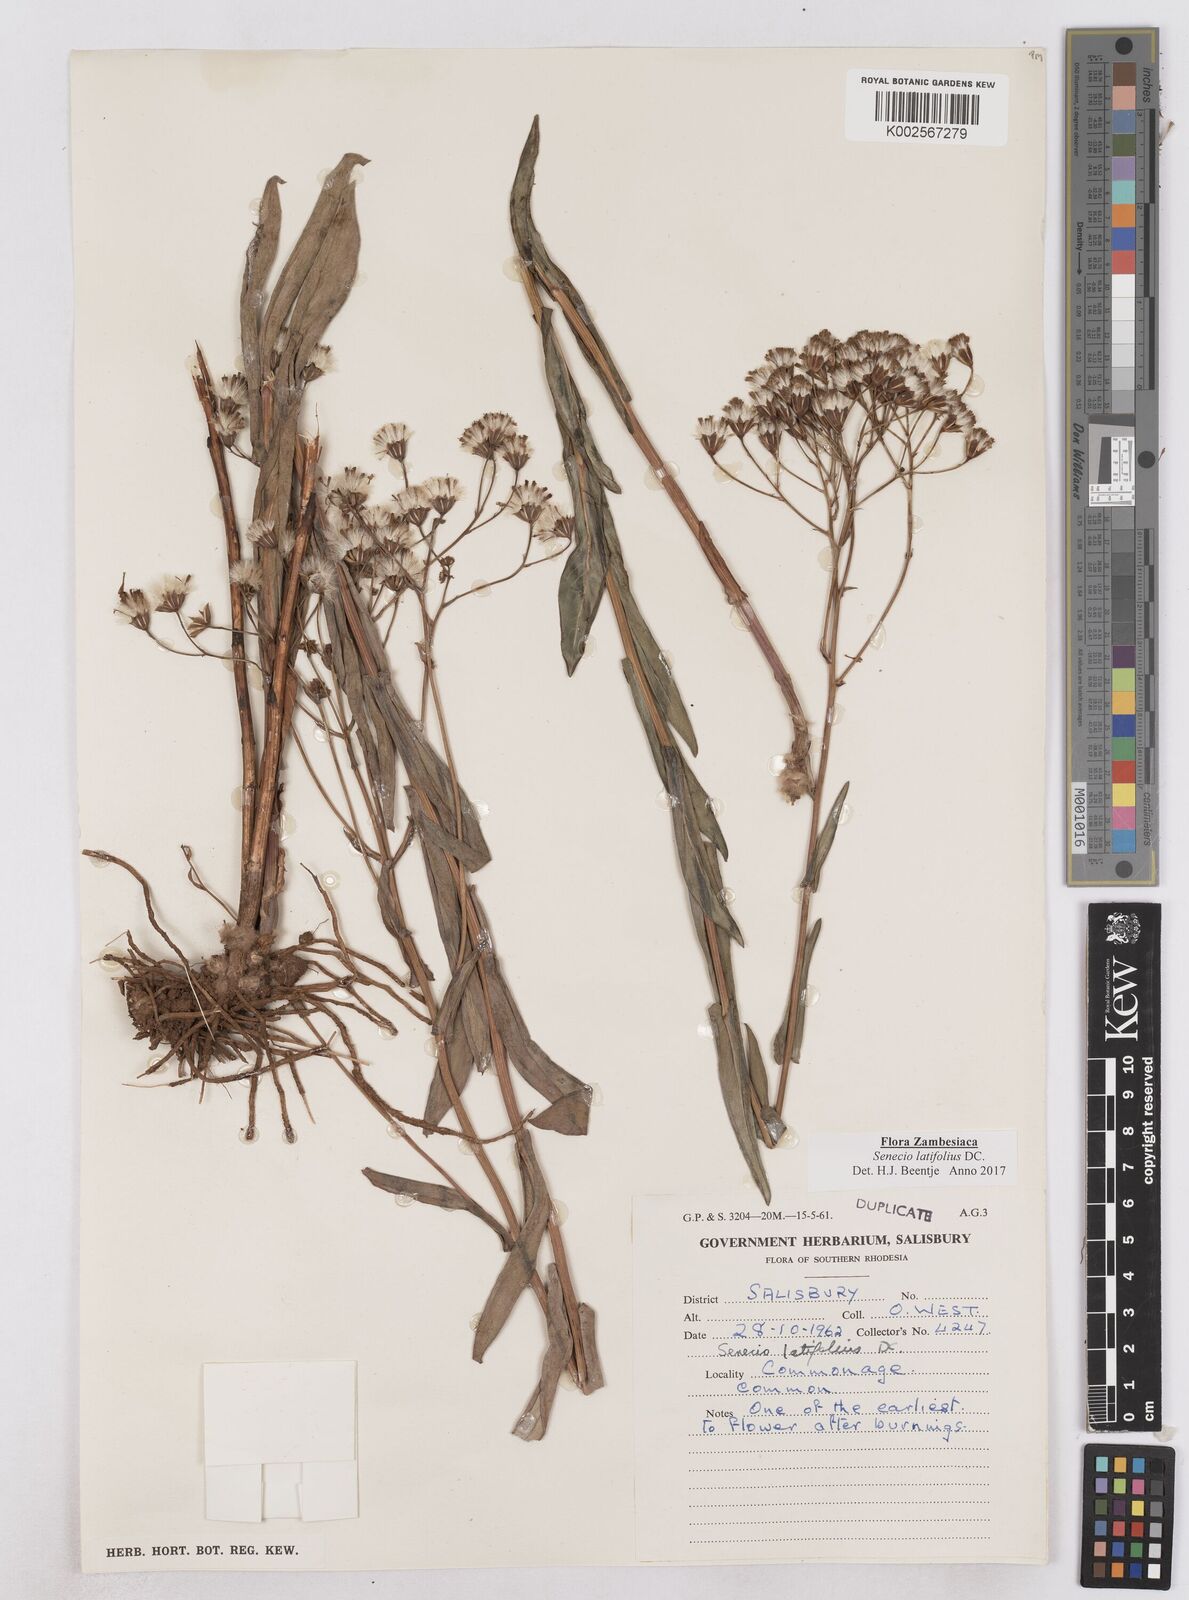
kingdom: Plantae
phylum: Tracheophyta
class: Magnoliopsida
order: Asterales
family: Asteraceae
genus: Senecio
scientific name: Senecio latifolius
